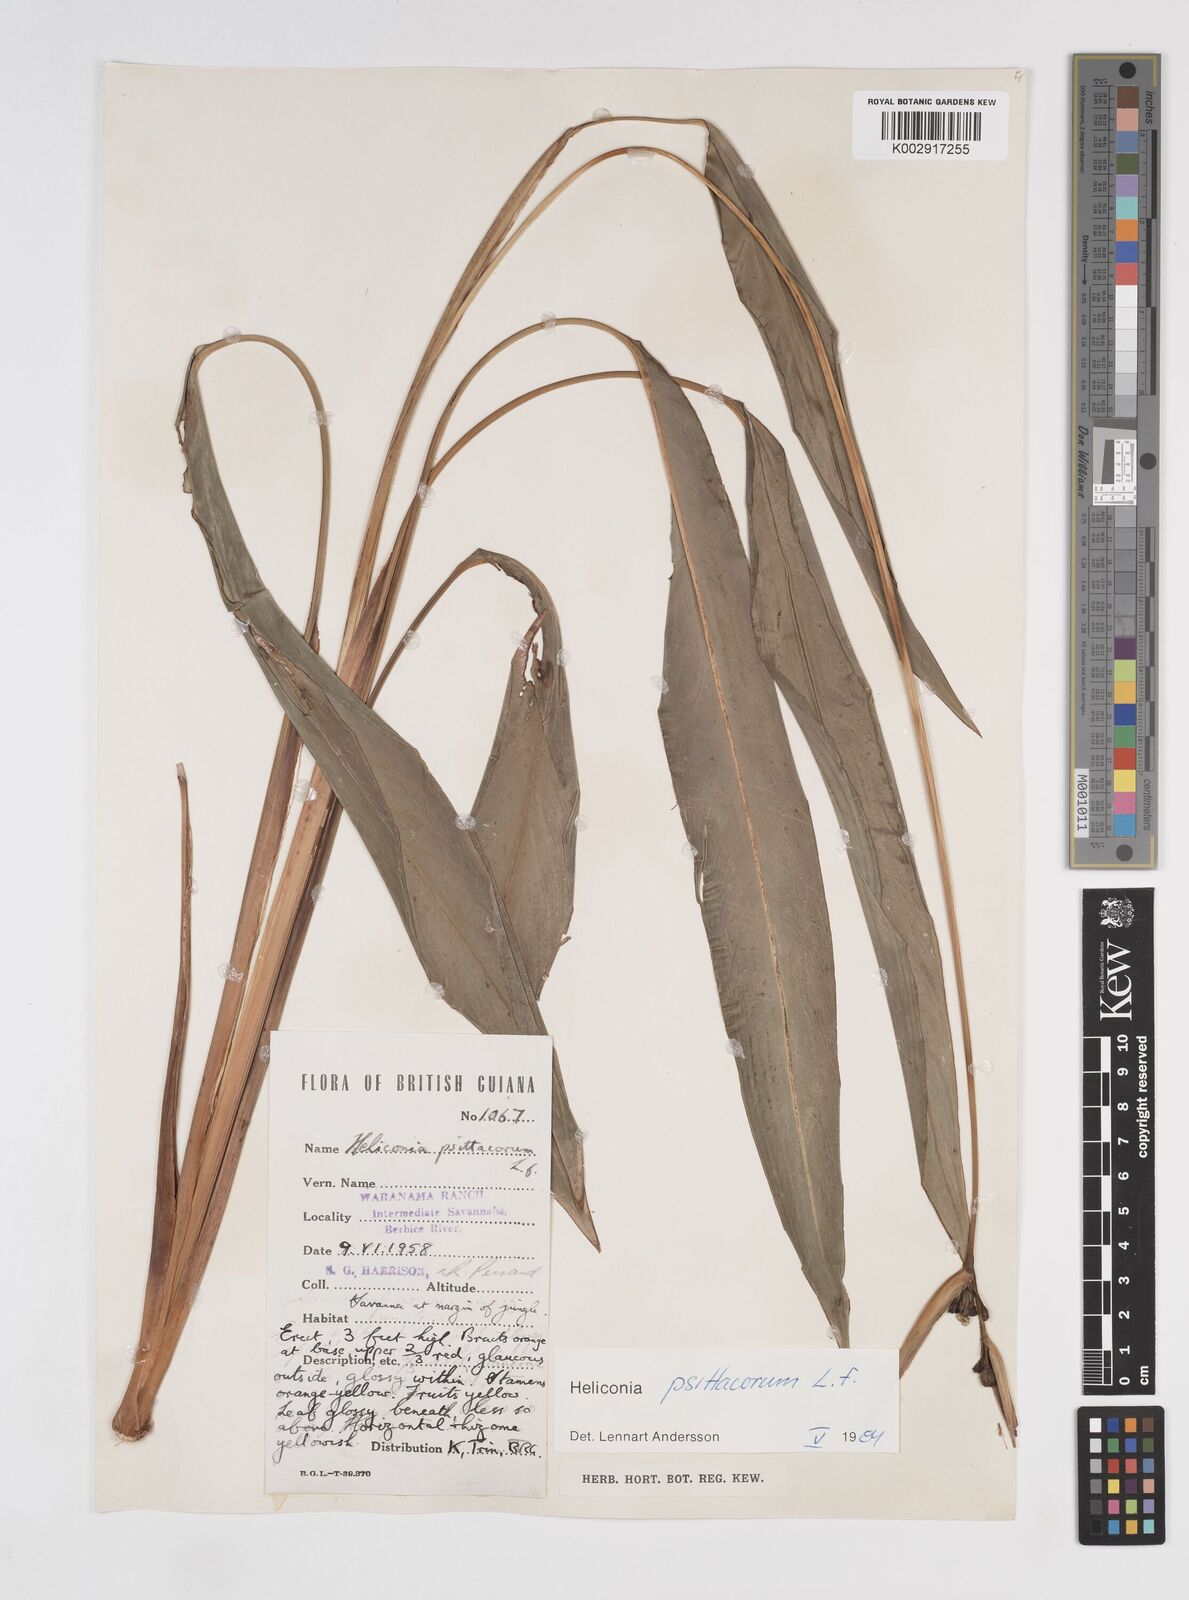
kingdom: Plantae
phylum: Tracheophyta
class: Liliopsida
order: Zingiberales
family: Heliconiaceae
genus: Heliconia
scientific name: Heliconia psittacorum
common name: Parrot's-flower
